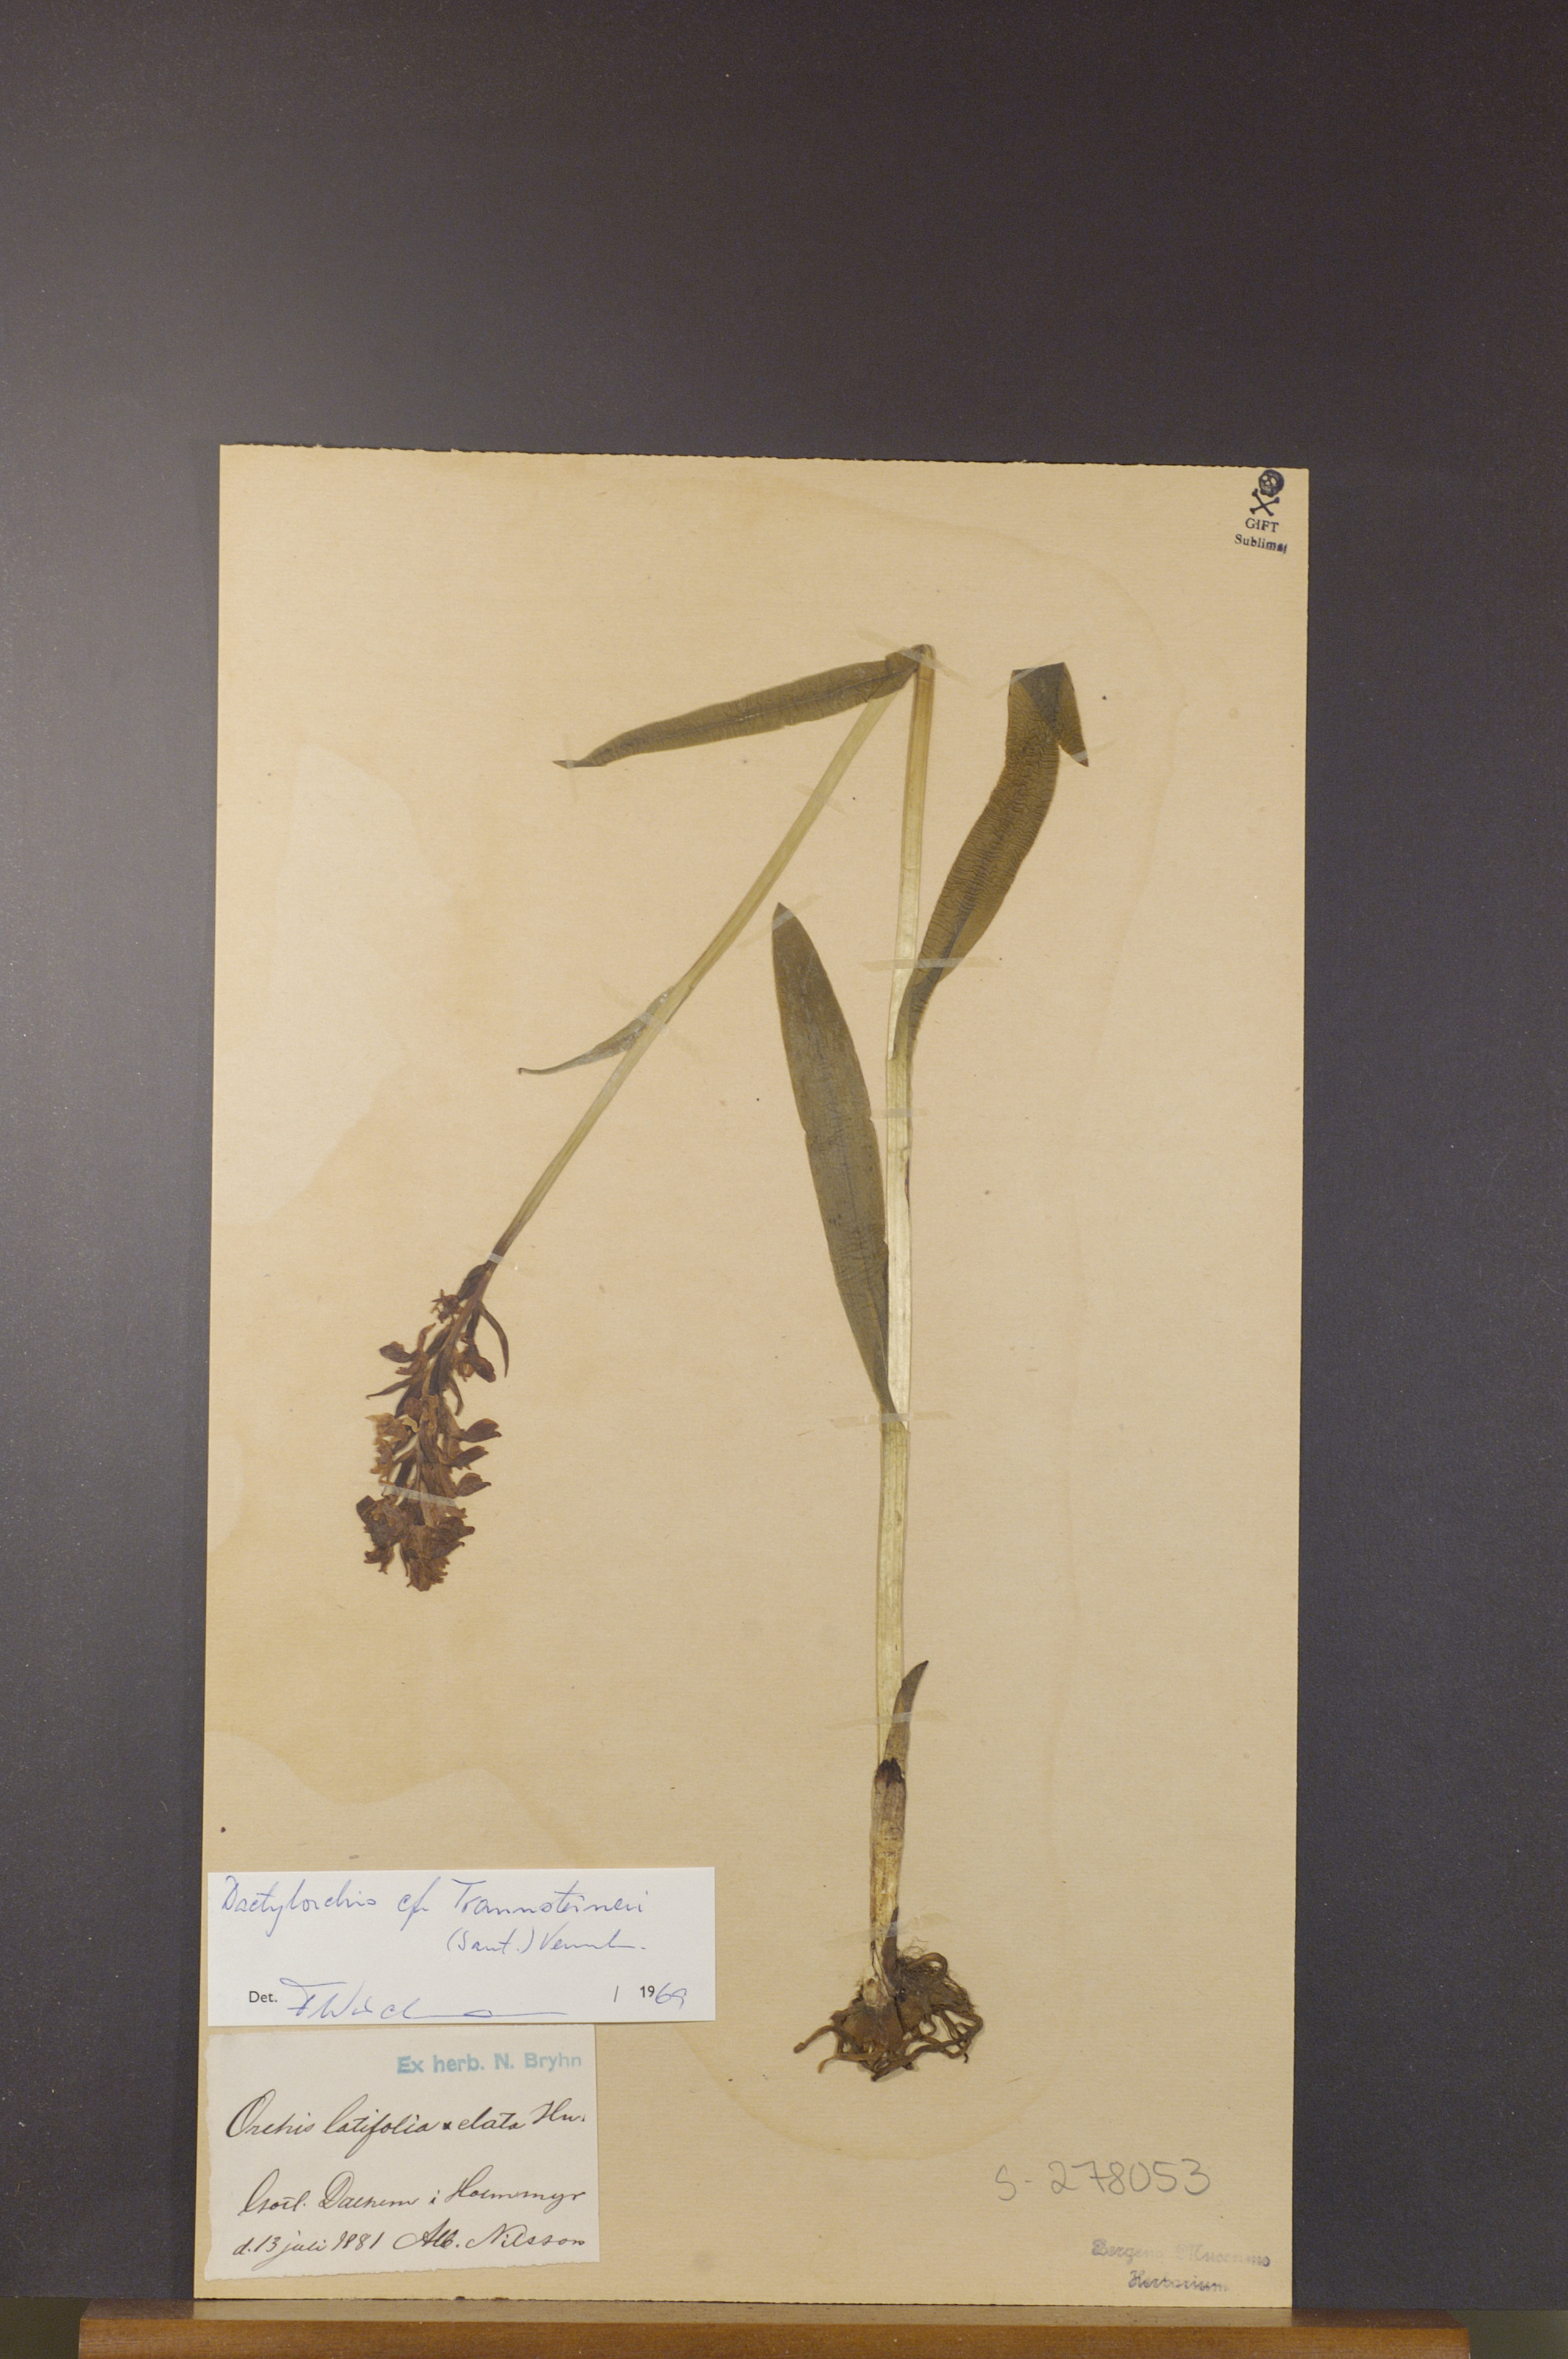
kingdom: Plantae
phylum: Tracheophyta
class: Liliopsida
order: Asparagales
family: Orchidaceae
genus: Dactylorhiza
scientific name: Dactylorhiza majalis
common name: Marsh orchid
